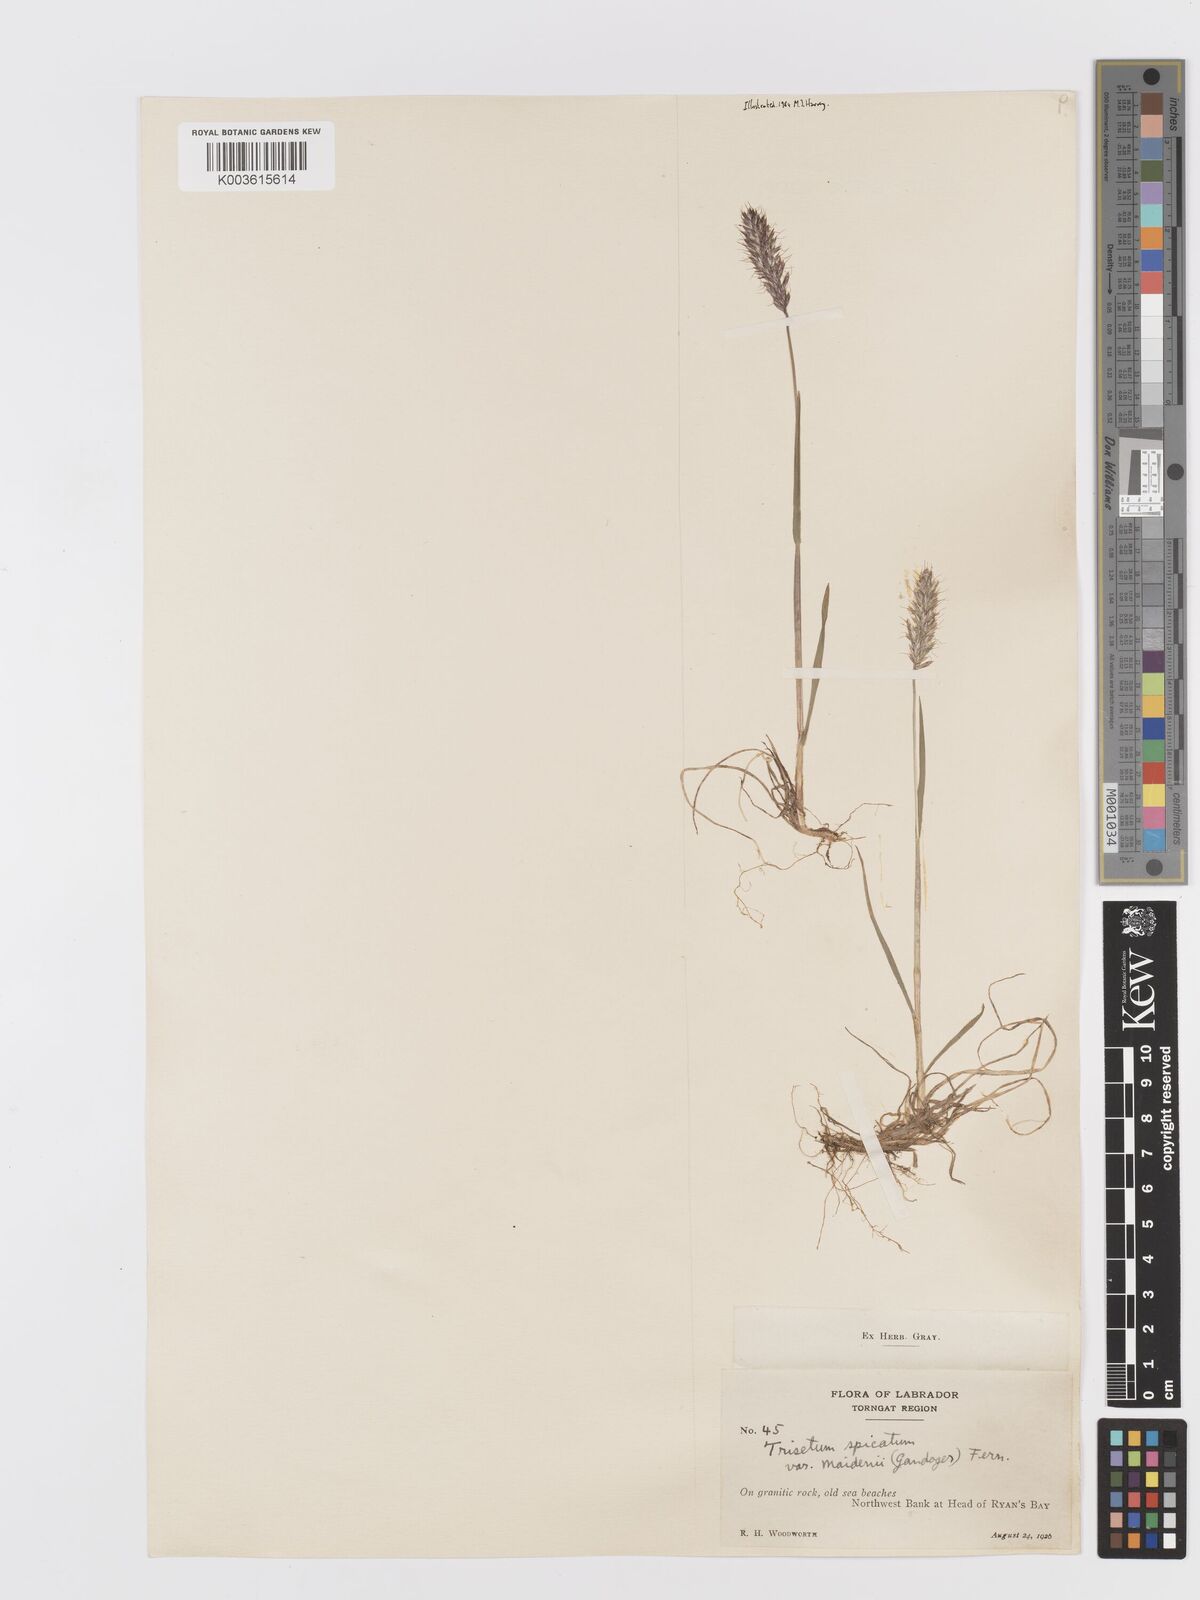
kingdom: Plantae
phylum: Tracheophyta
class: Liliopsida
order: Poales
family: Poaceae
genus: Koeleria
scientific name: Koeleria spicata
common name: Mountain trisetum
